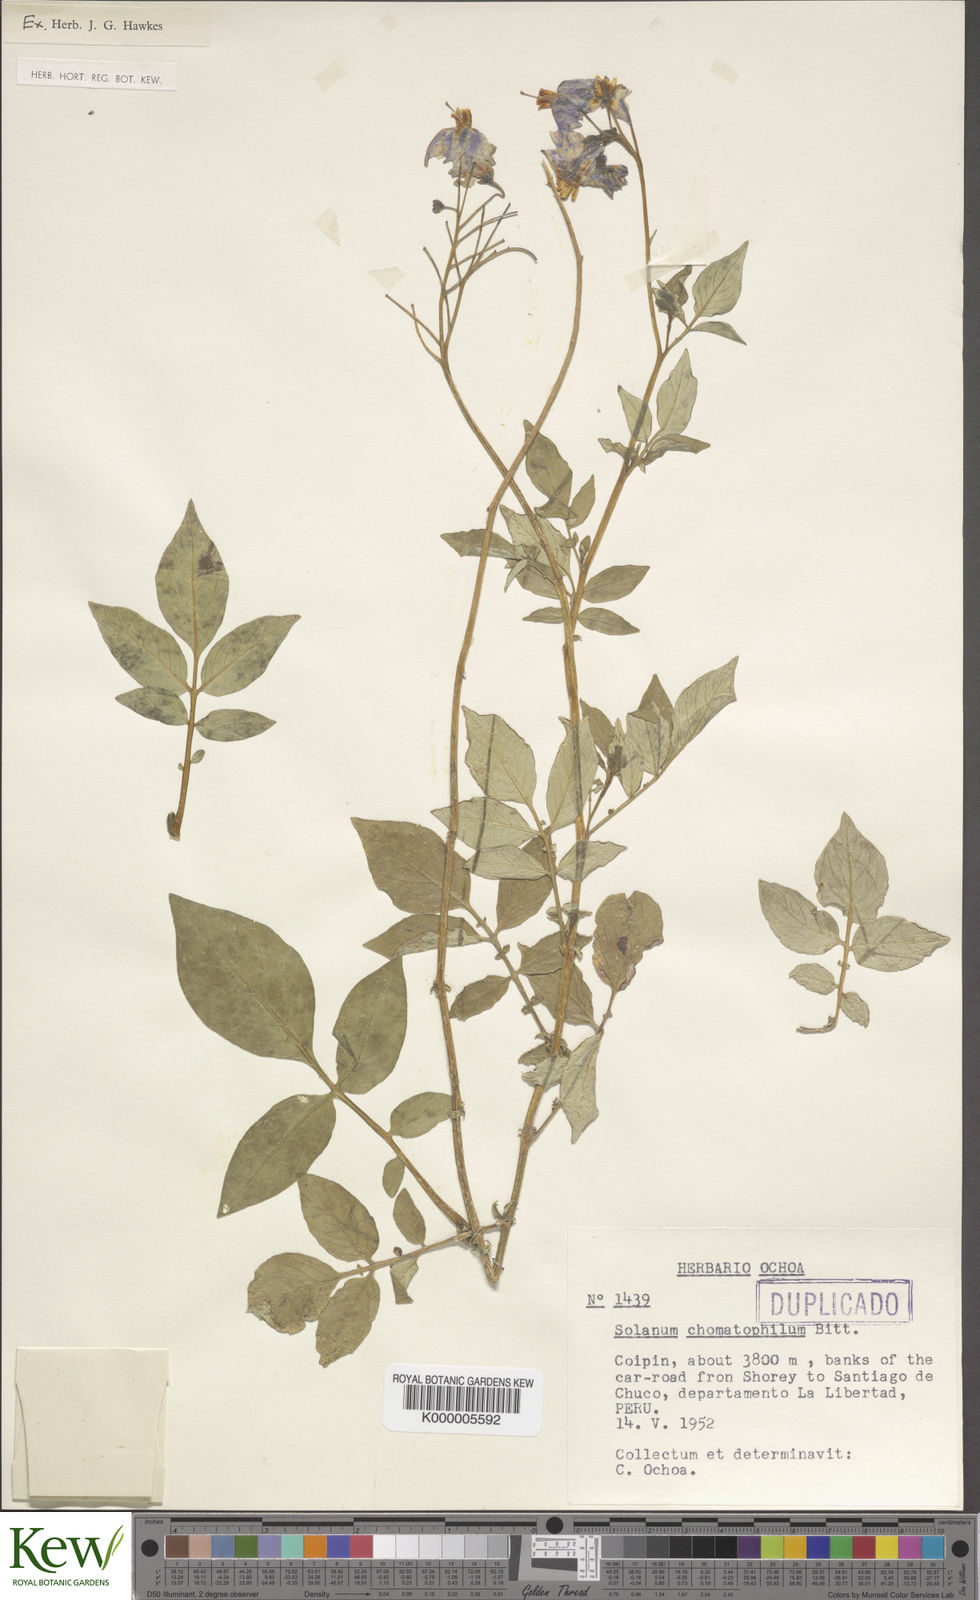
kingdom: Plantae
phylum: Tracheophyta
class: Magnoliopsida
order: Solanales
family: Solanaceae
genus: Solanum
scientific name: Solanum chomatophilum
